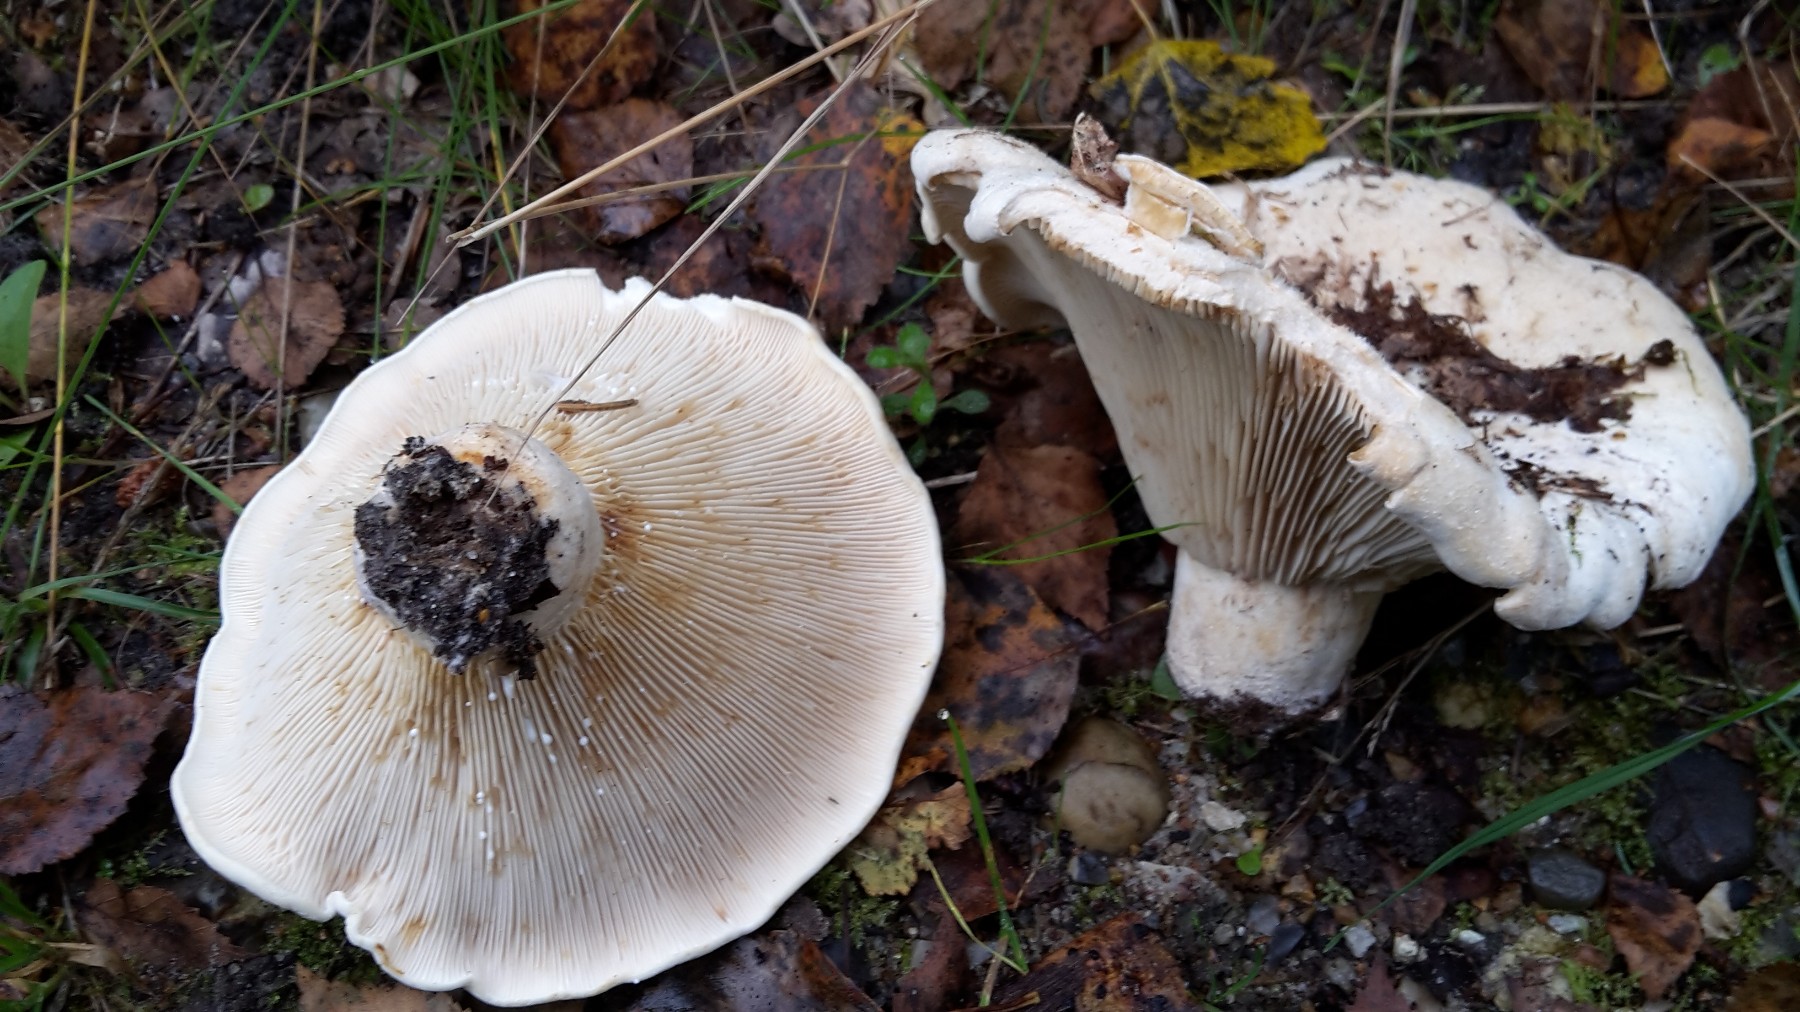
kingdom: Fungi
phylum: Basidiomycota
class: Agaricomycetes
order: Russulales
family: Russulaceae
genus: Lactifluus
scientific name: Lactifluus bertillonii
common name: blødfiltet mælkehat
